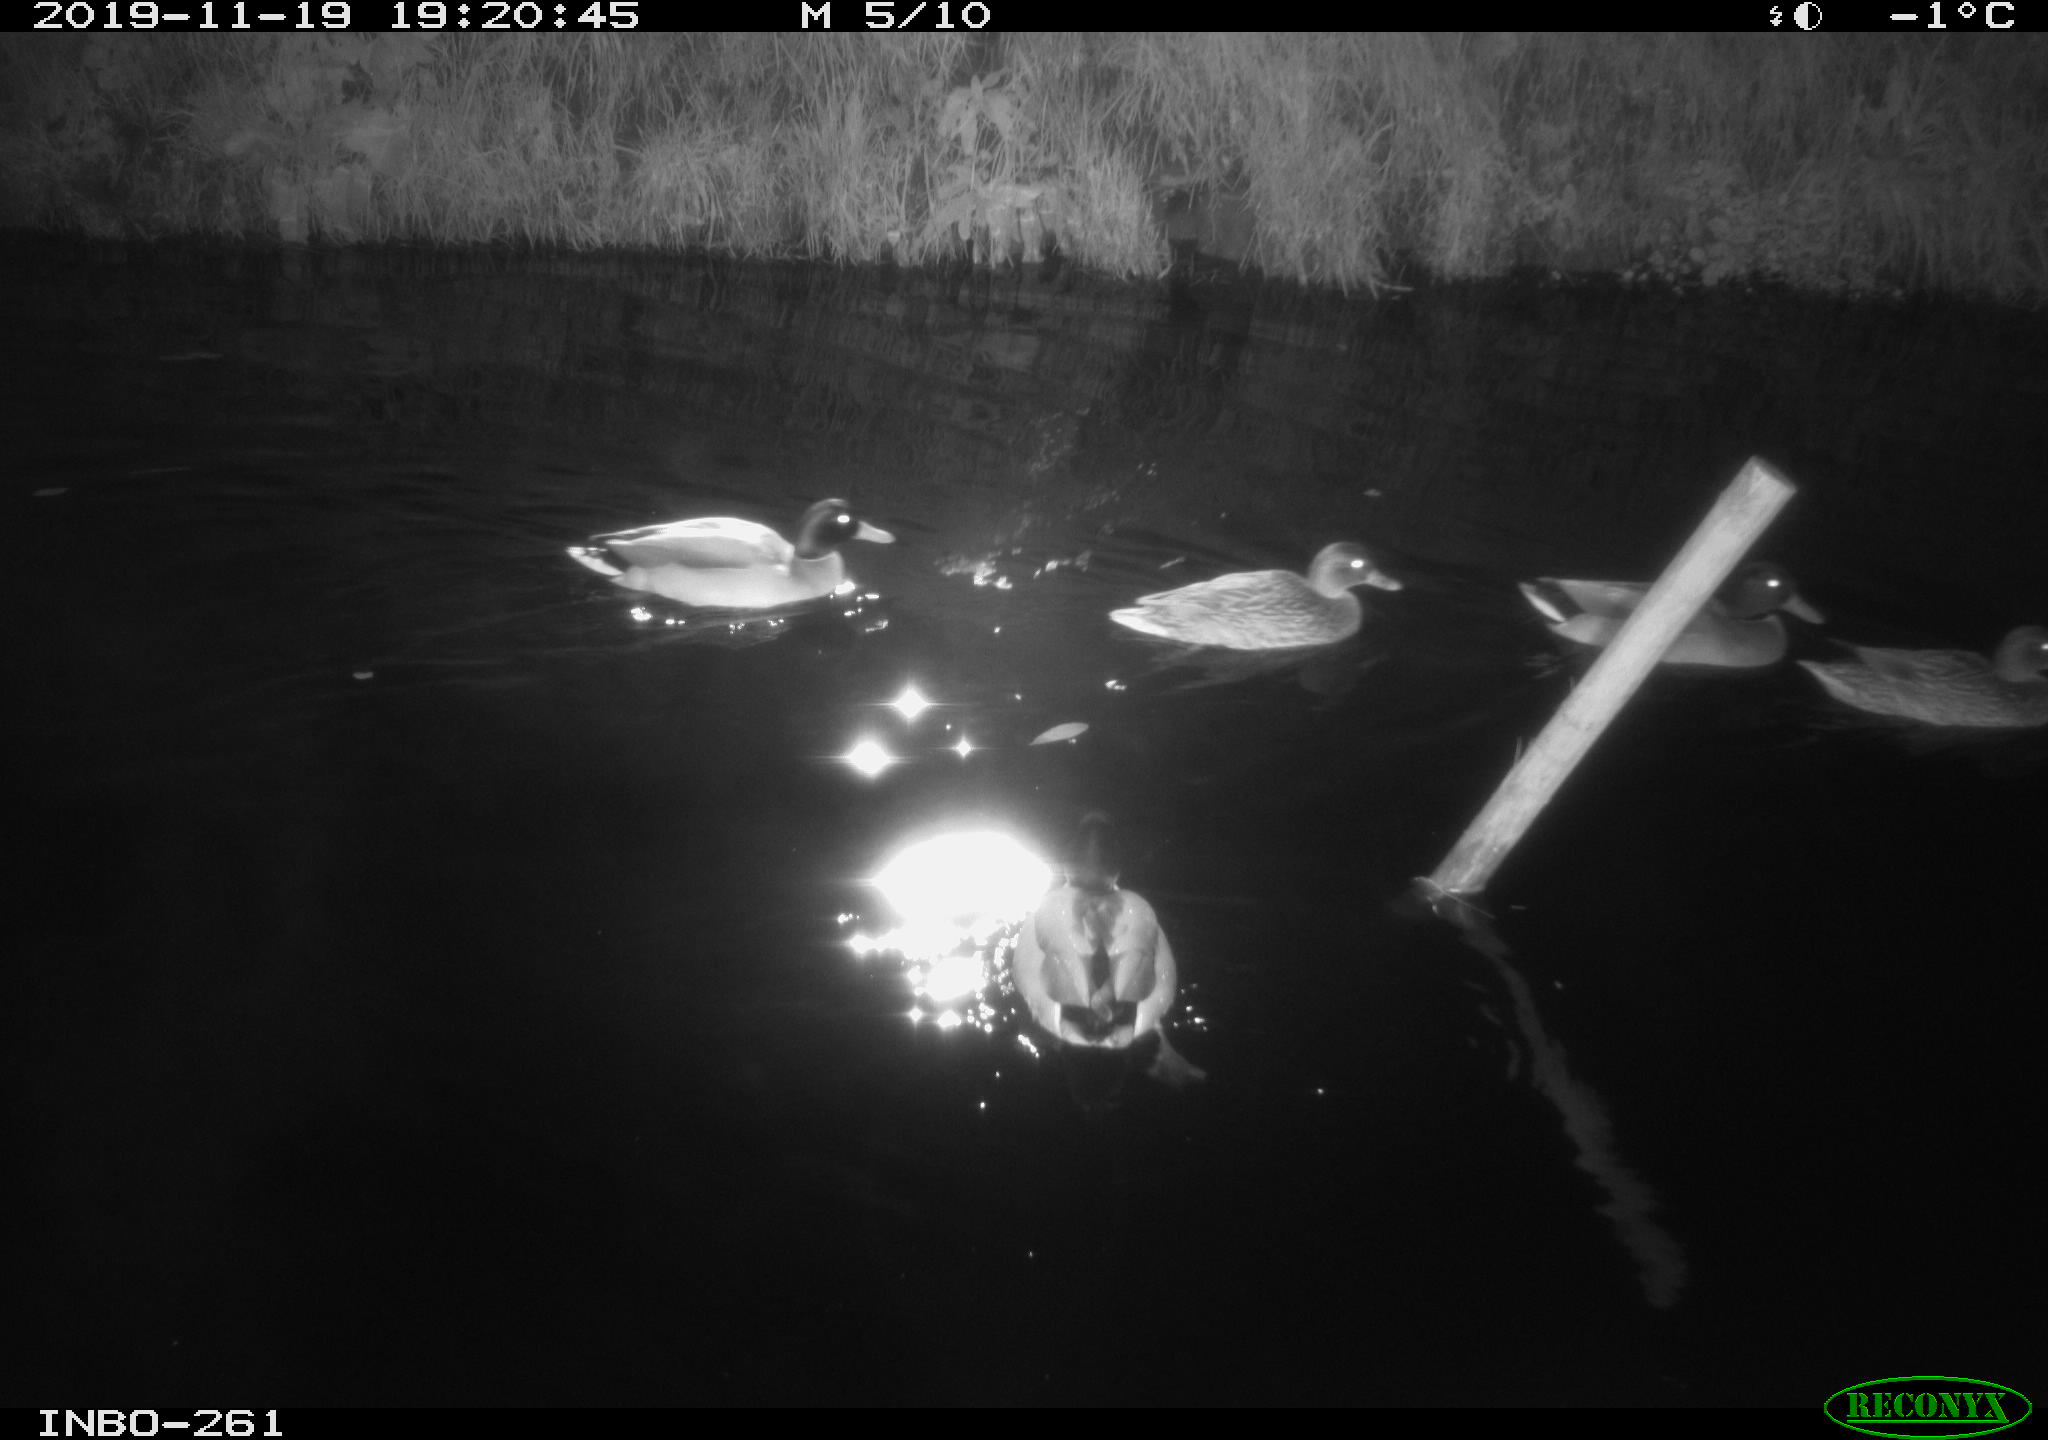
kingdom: Animalia
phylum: Chordata
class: Aves
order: Anseriformes
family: Anatidae
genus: Anas
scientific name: Anas platyrhynchos
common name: Mallard
